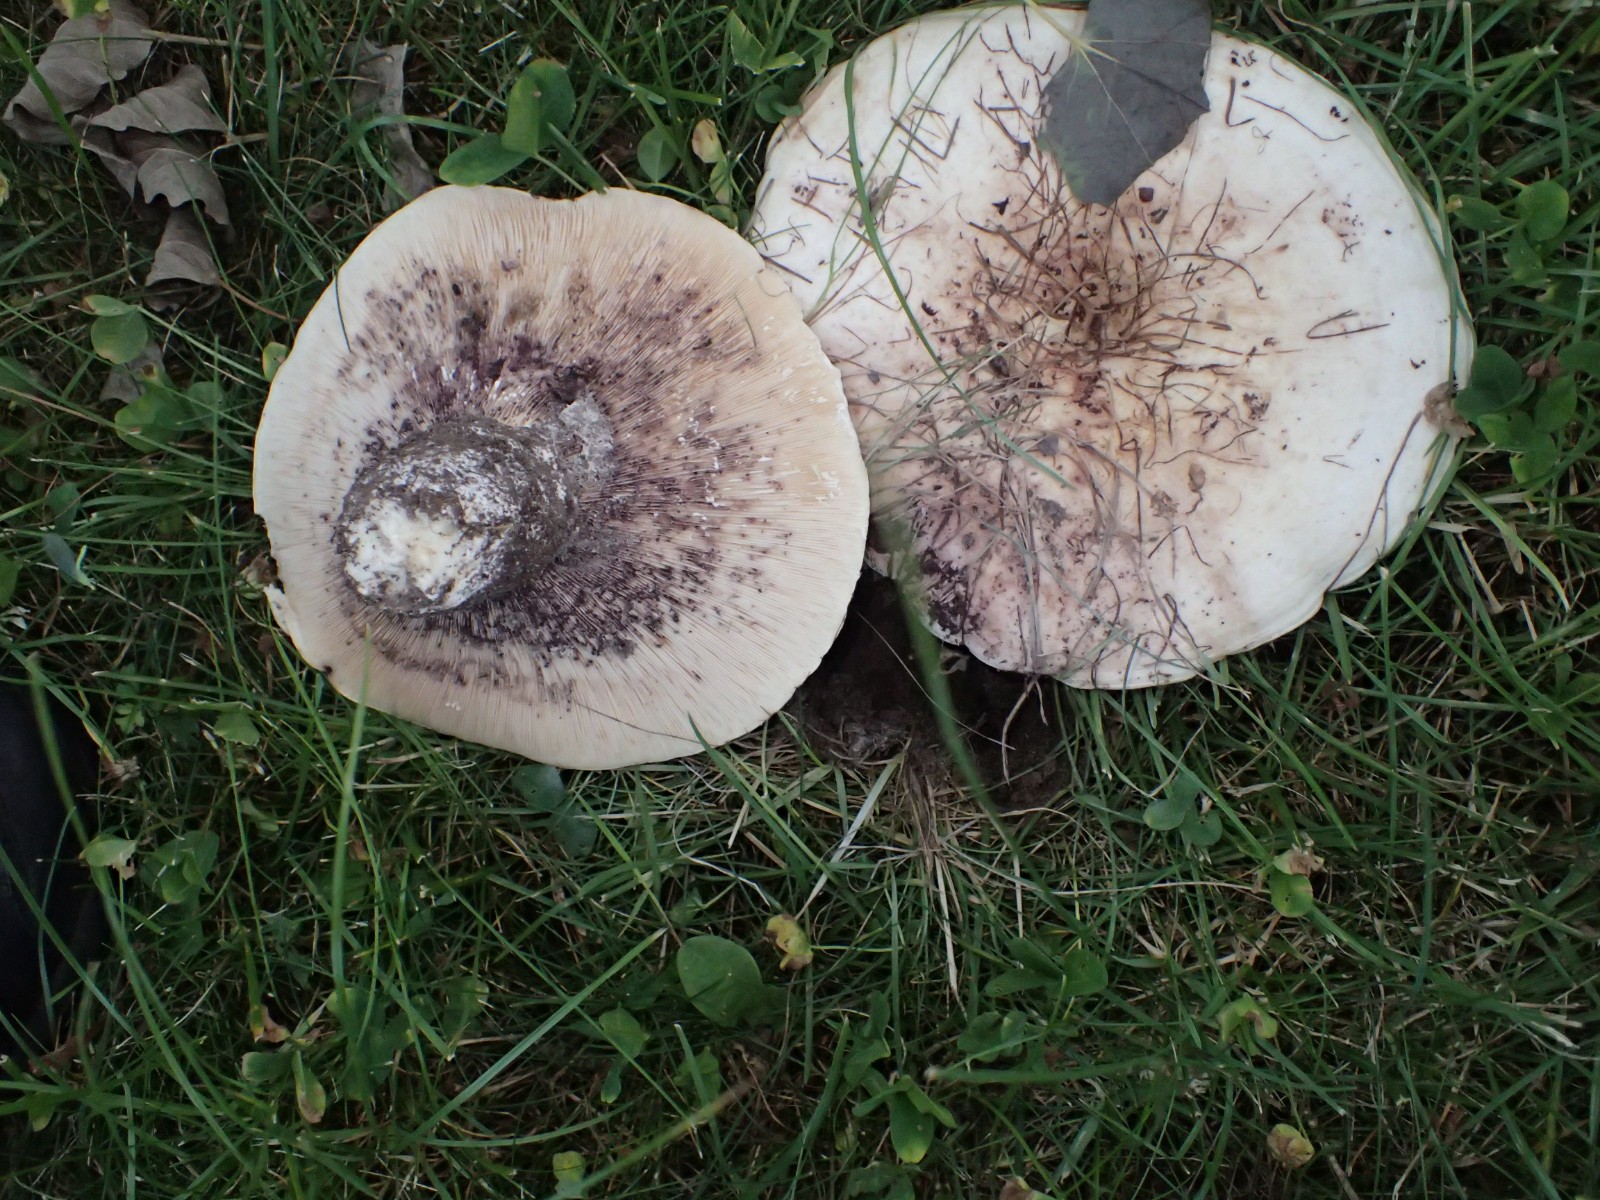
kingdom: Fungi
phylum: Basidiomycota
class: Agaricomycetes
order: Russulales
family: Russulaceae
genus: Lactarius
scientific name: Lactarius controversus
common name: rosabladet mælkehat
